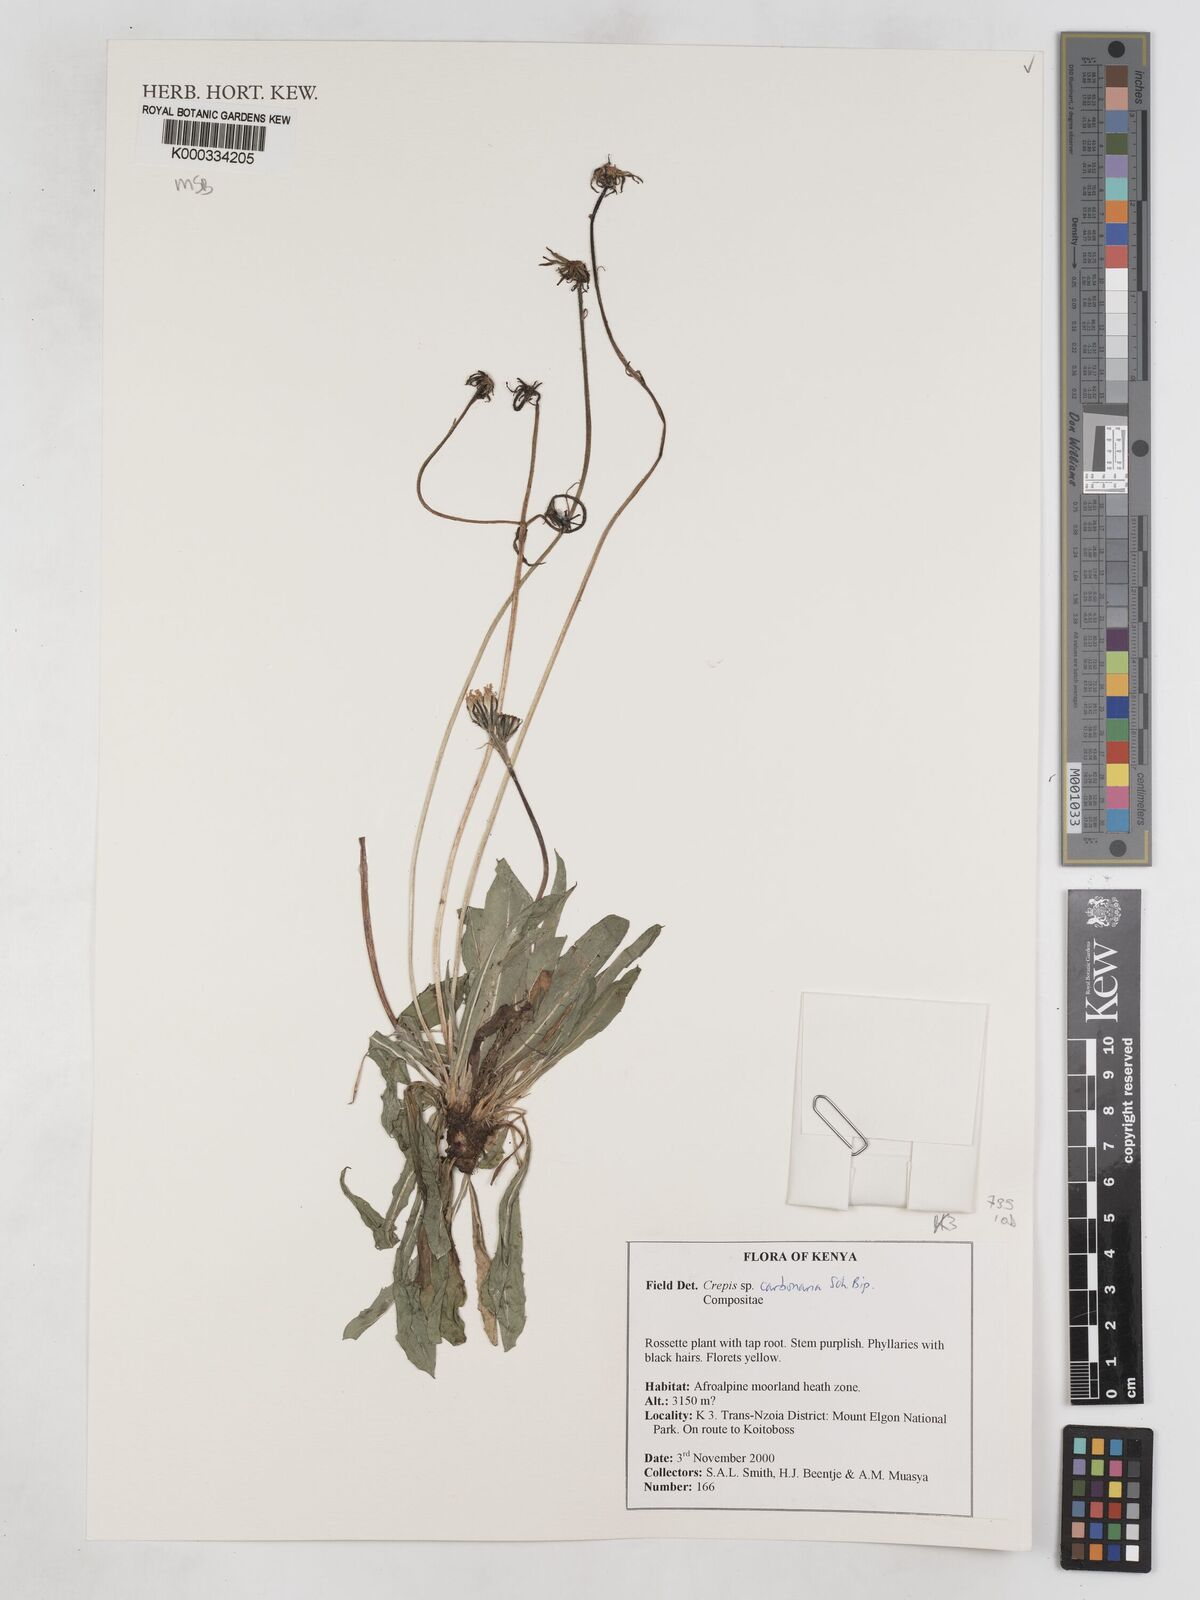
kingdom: Plantae
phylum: Tracheophyta
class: Magnoliopsida
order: Asterales
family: Asteraceae
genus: Crepis
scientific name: Crepis carbonaria
